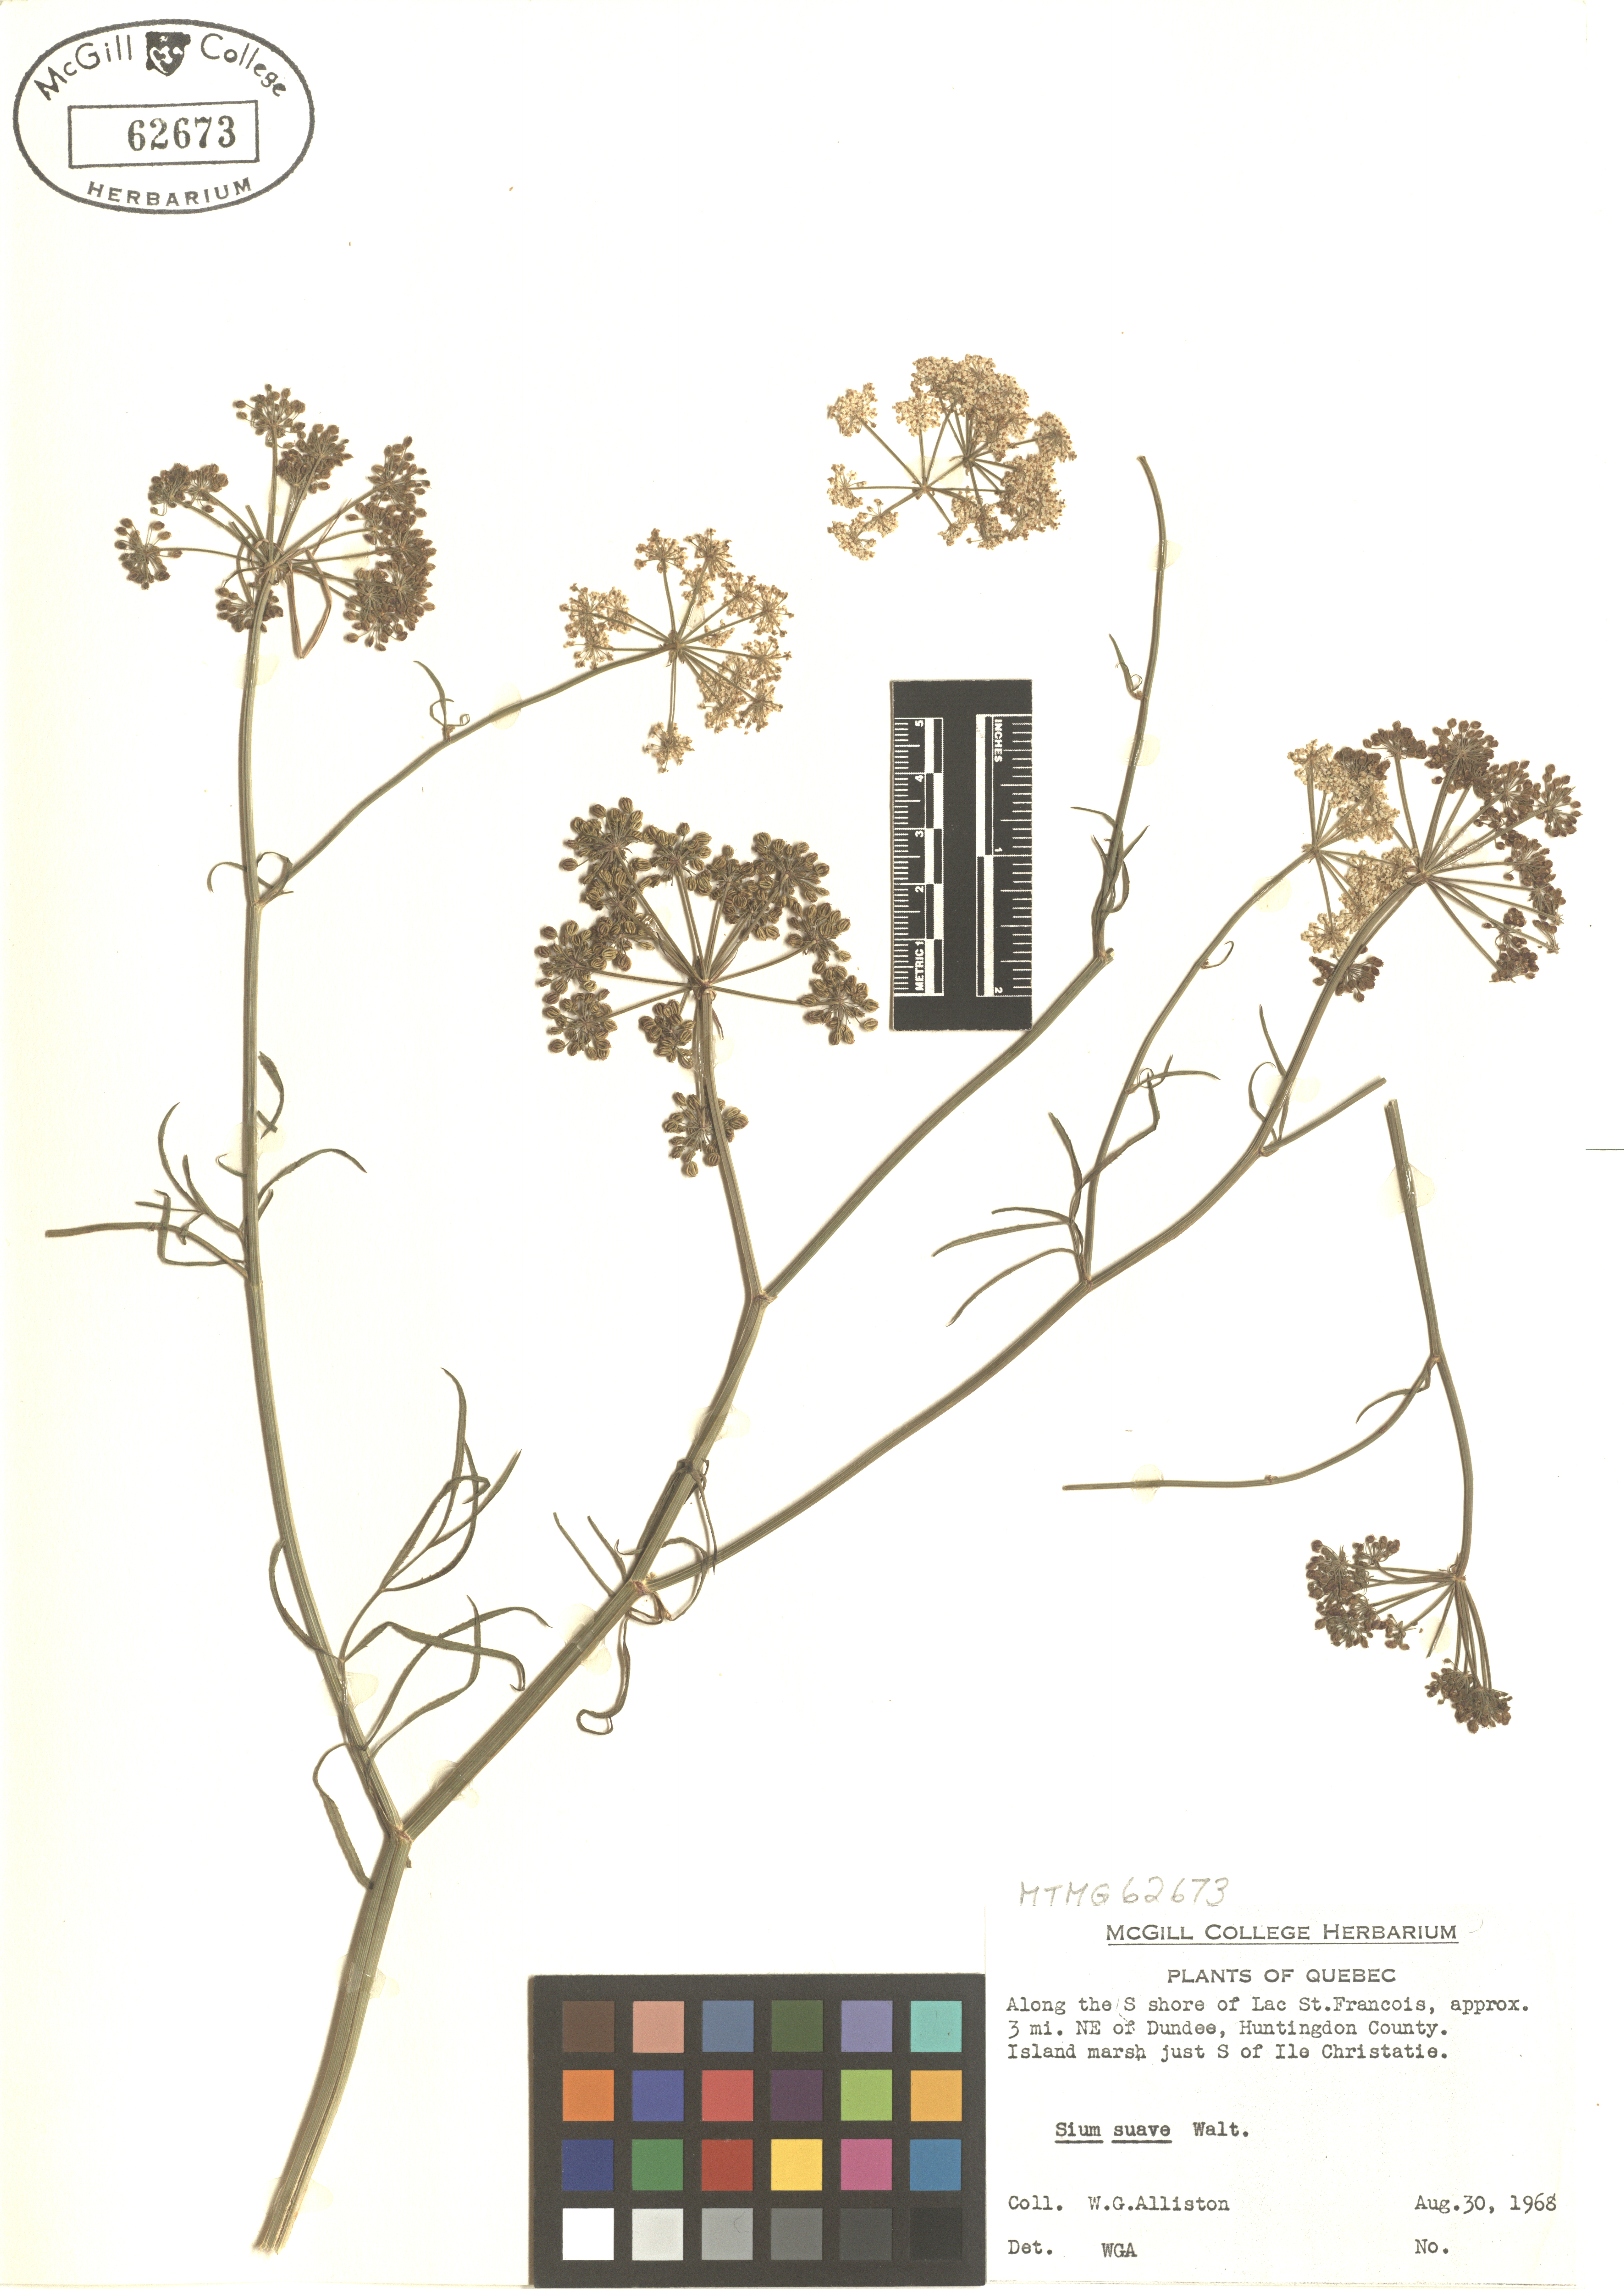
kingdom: Plantae
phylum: Tracheophyta
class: Magnoliopsida
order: Apiales
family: Apiaceae
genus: Sium
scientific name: Sium suave
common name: Hemlock water-parsnip
